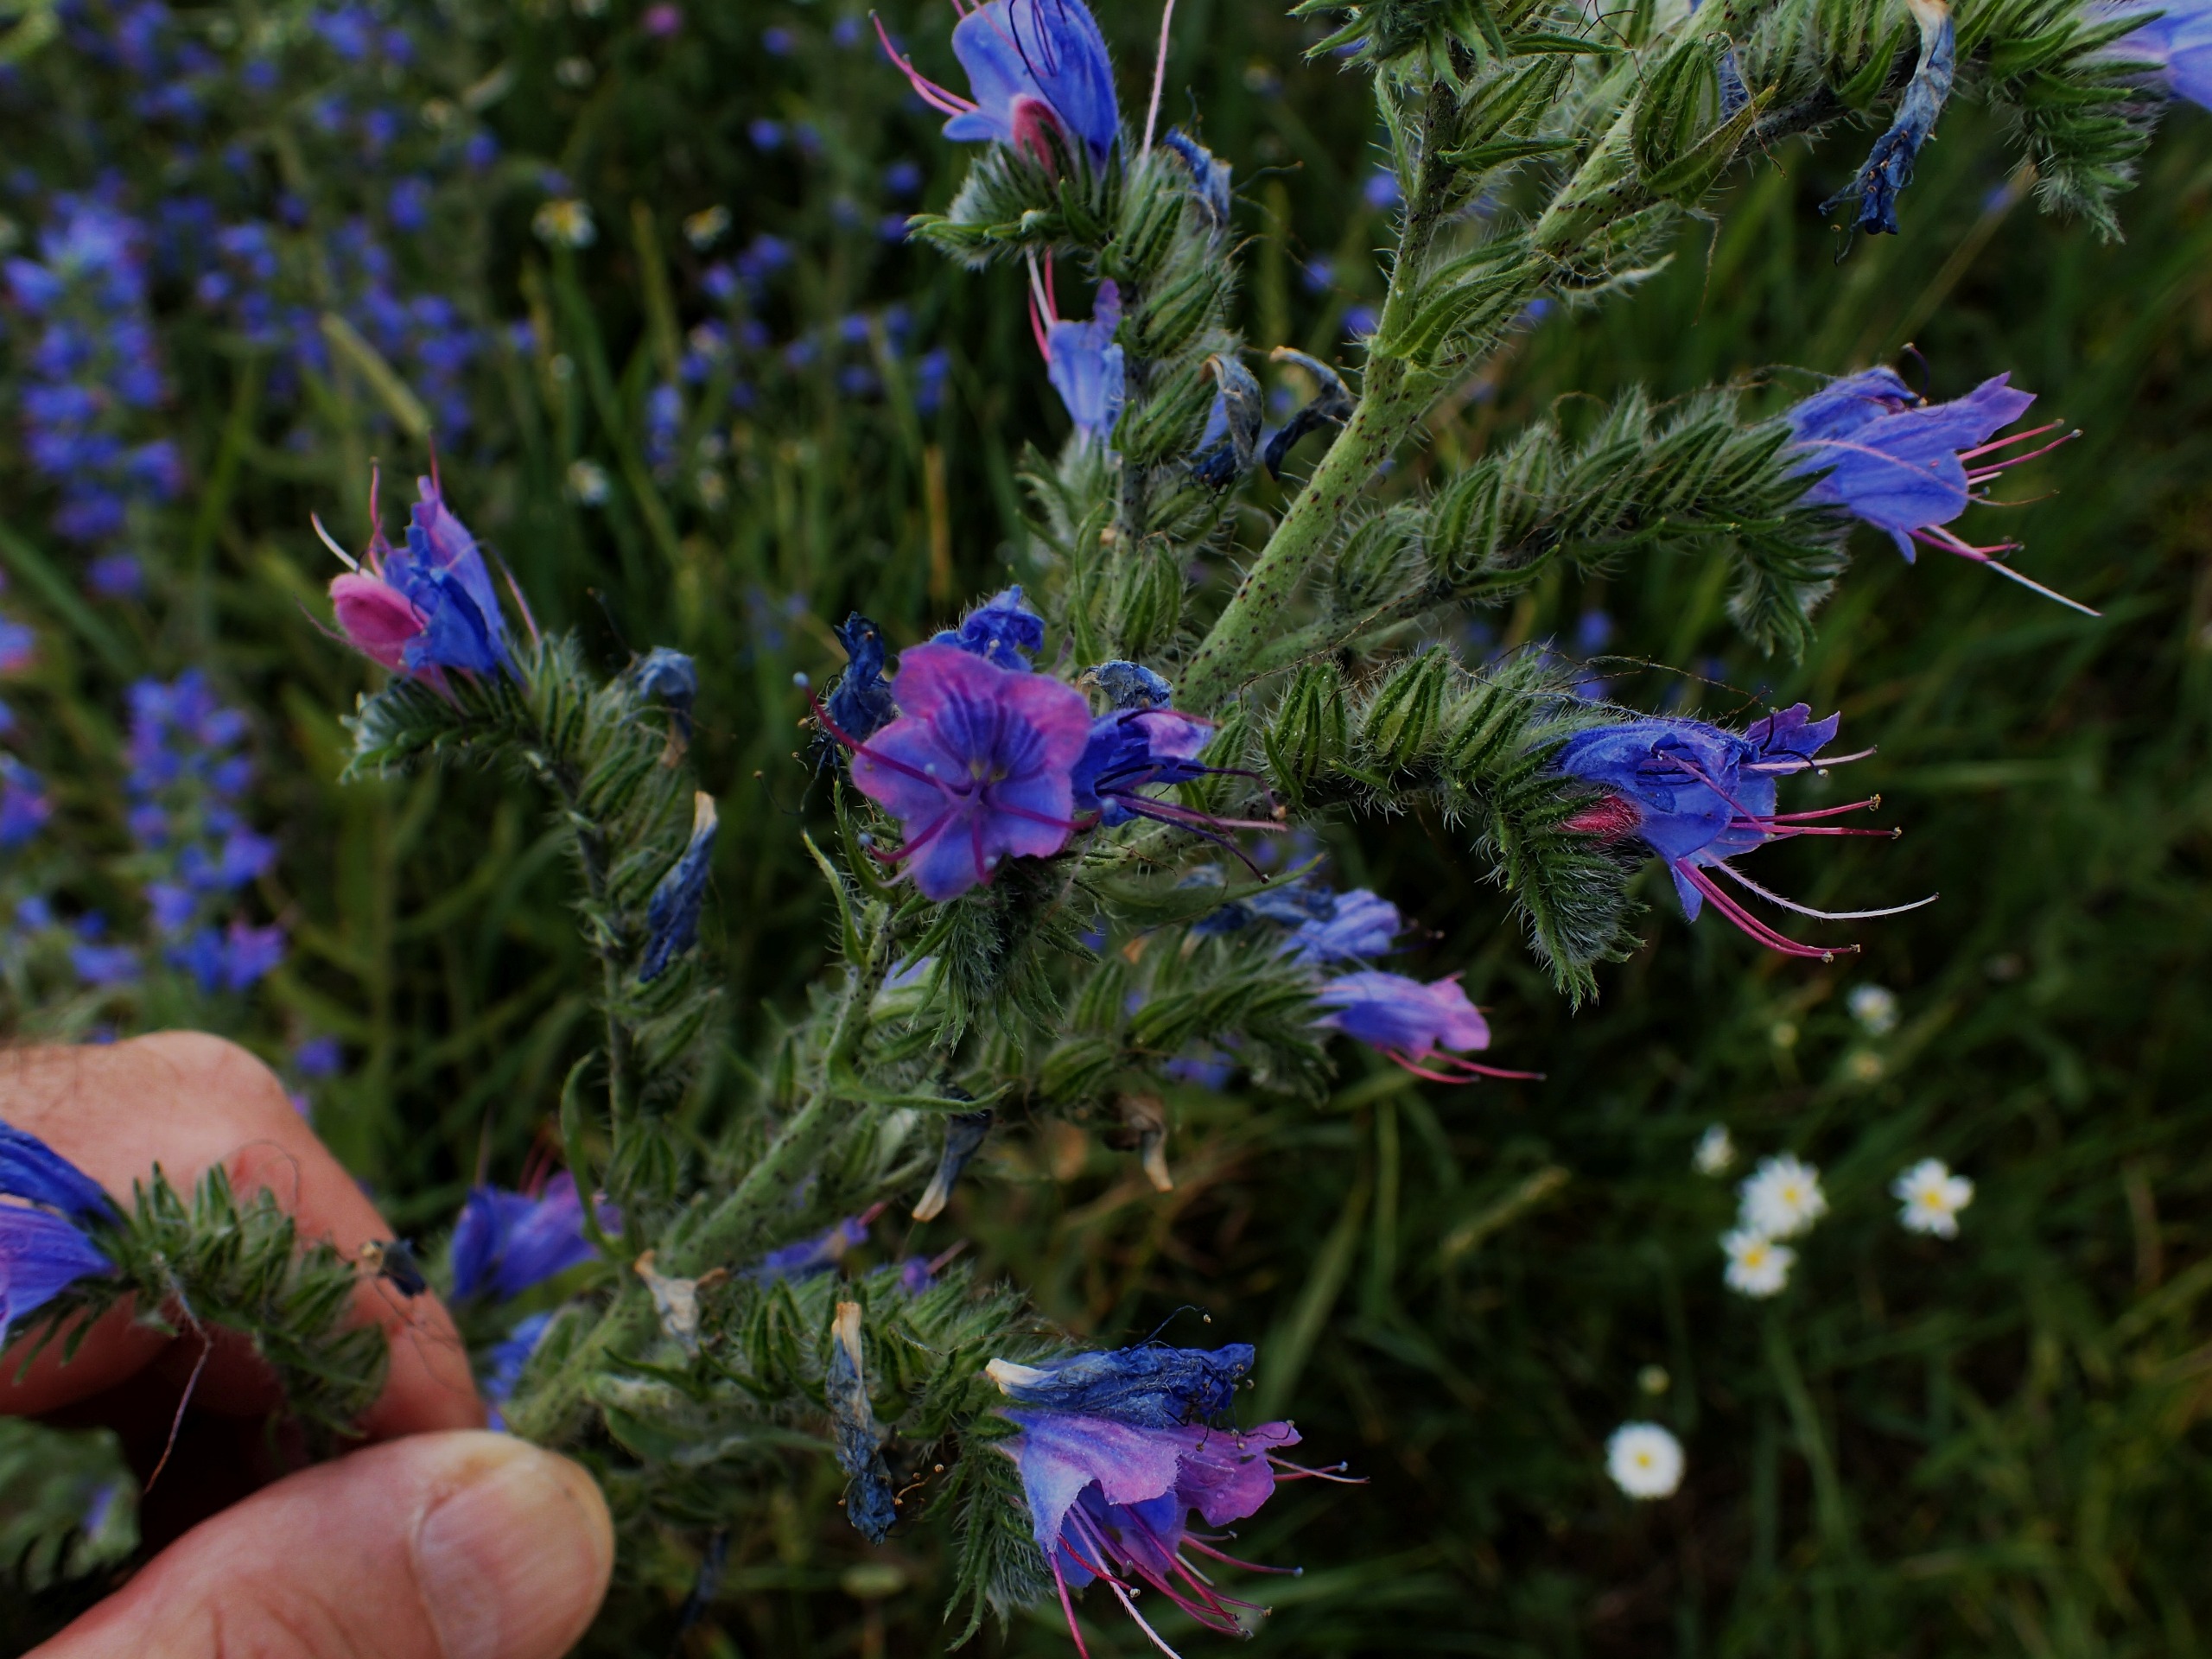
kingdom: Plantae
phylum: Tracheophyta
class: Magnoliopsida
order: Boraginales
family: Boraginaceae
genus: Echium
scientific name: Echium vulgare
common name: Slangehoved
